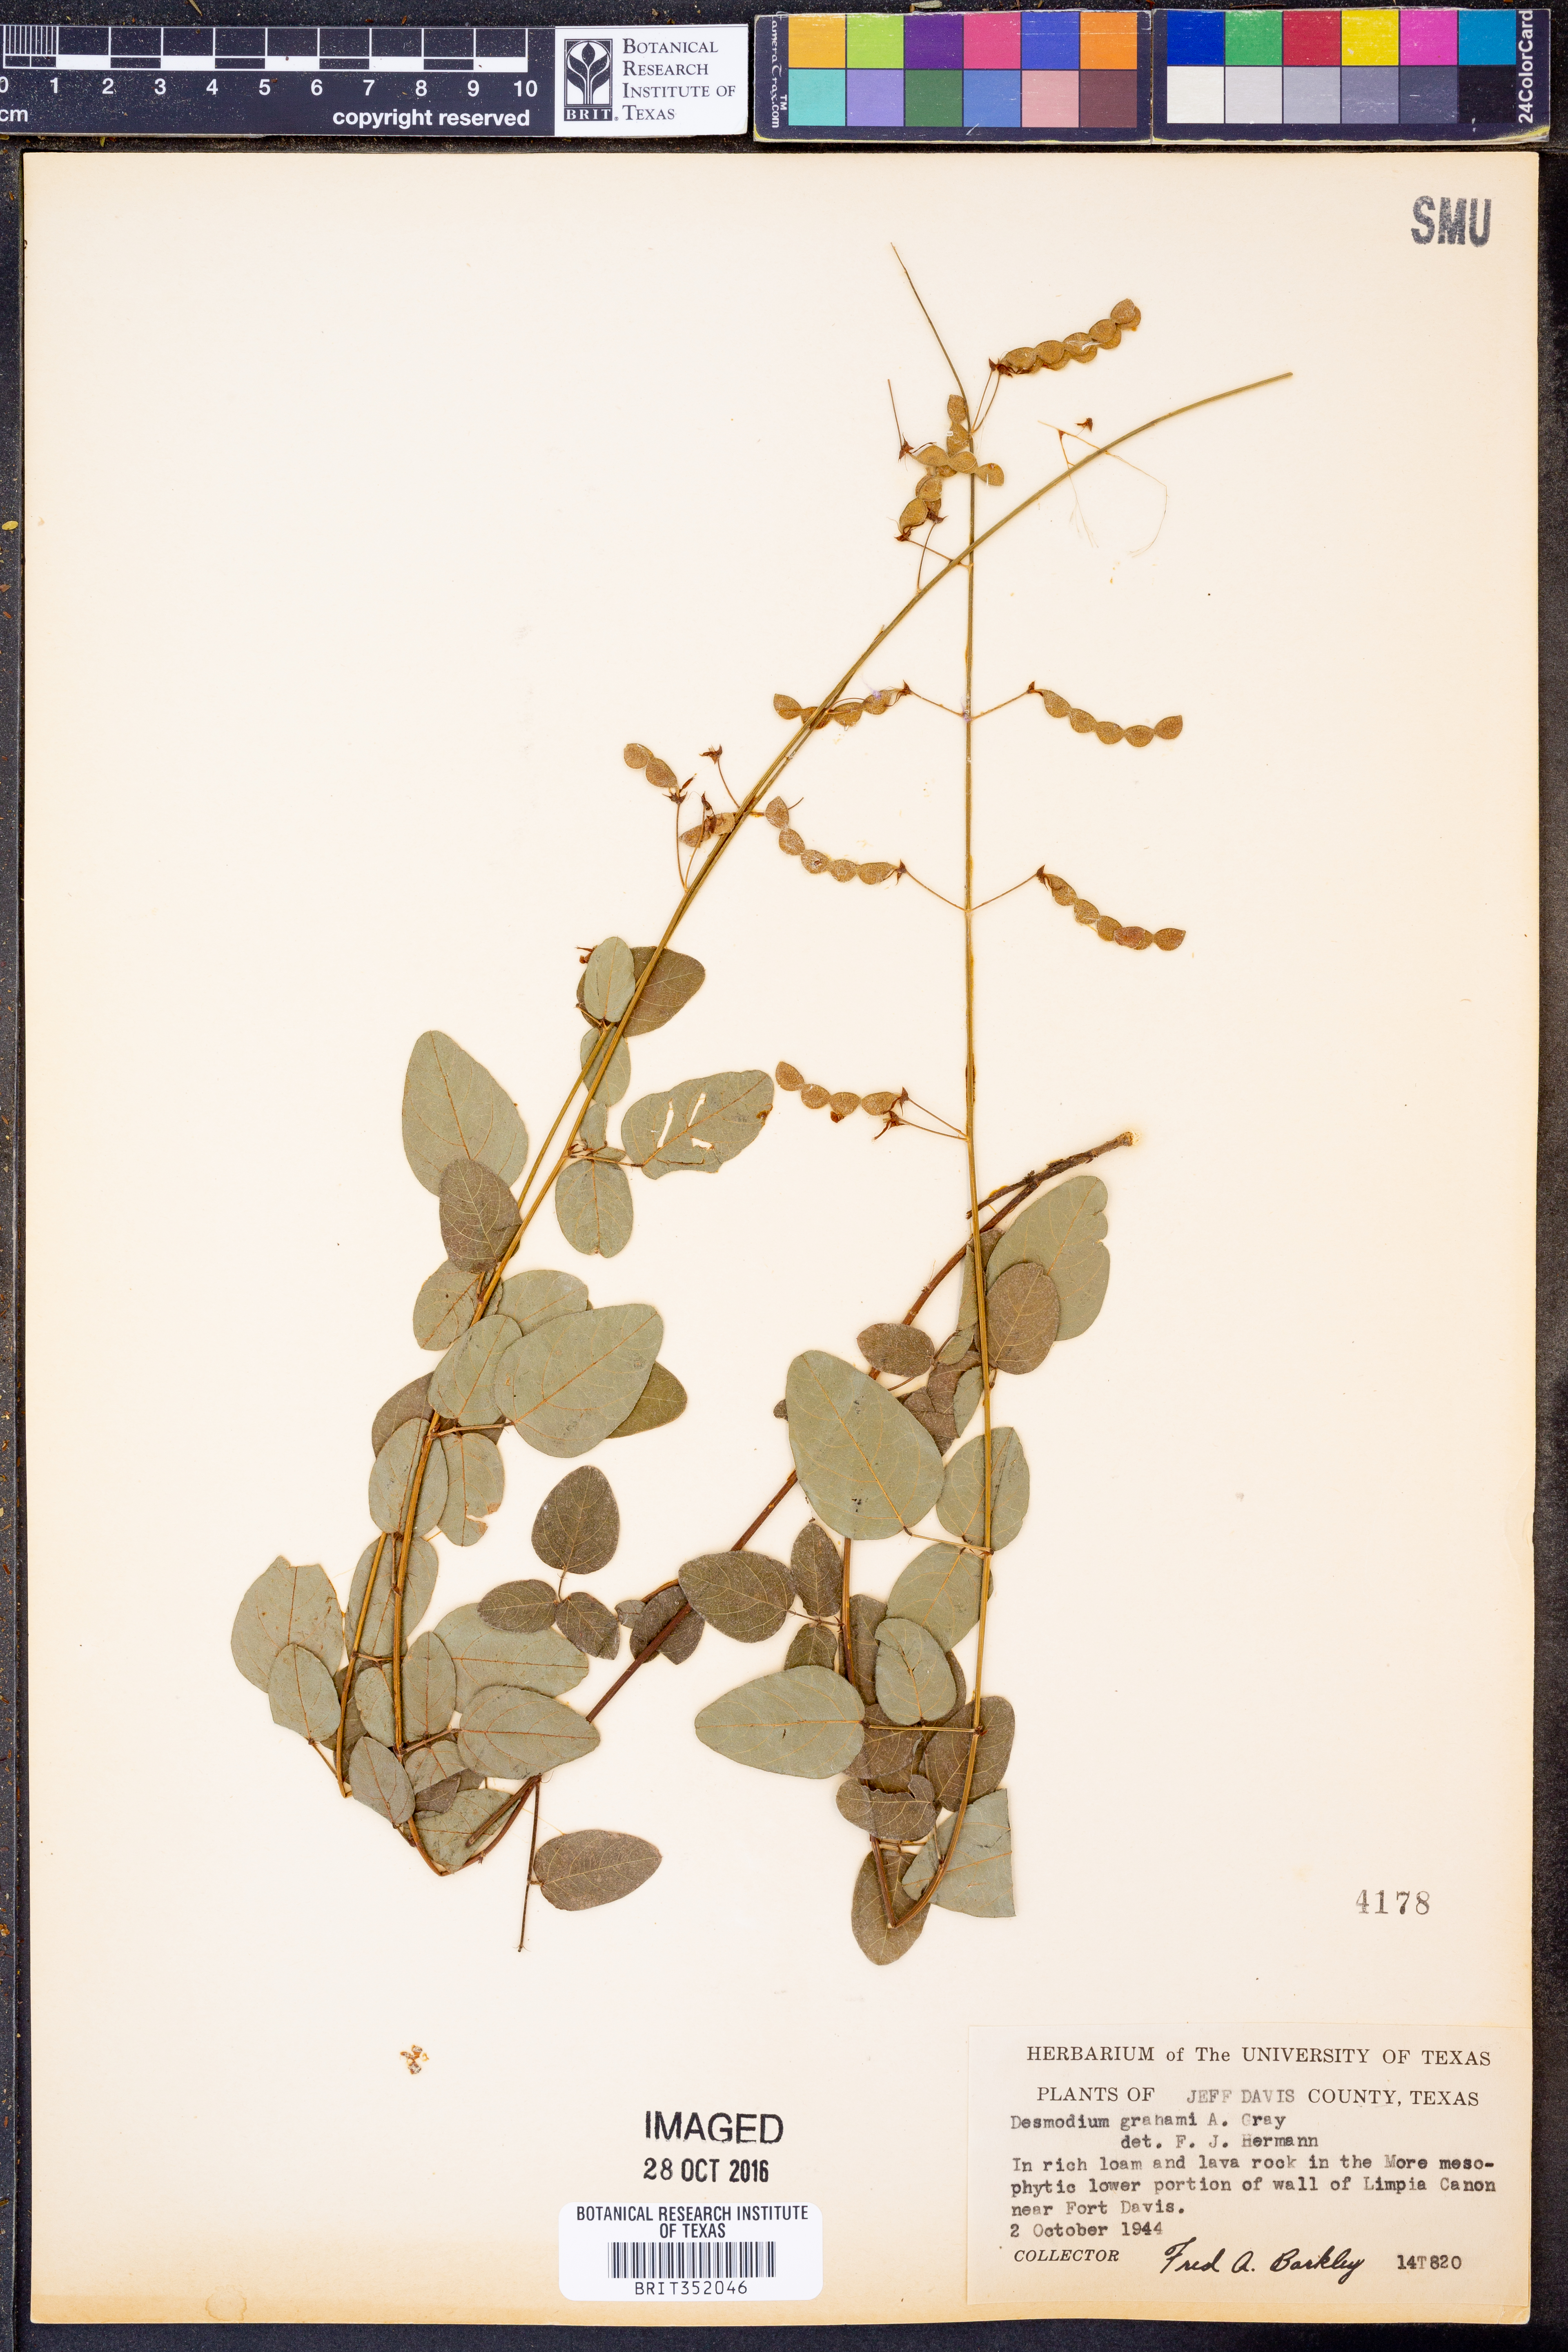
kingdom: Plantae
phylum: Tracheophyta
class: Magnoliopsida
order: Fabales
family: Fabaceae
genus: Desmodium
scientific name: Desmodium grahamii
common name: Graham's tick-trefoil
